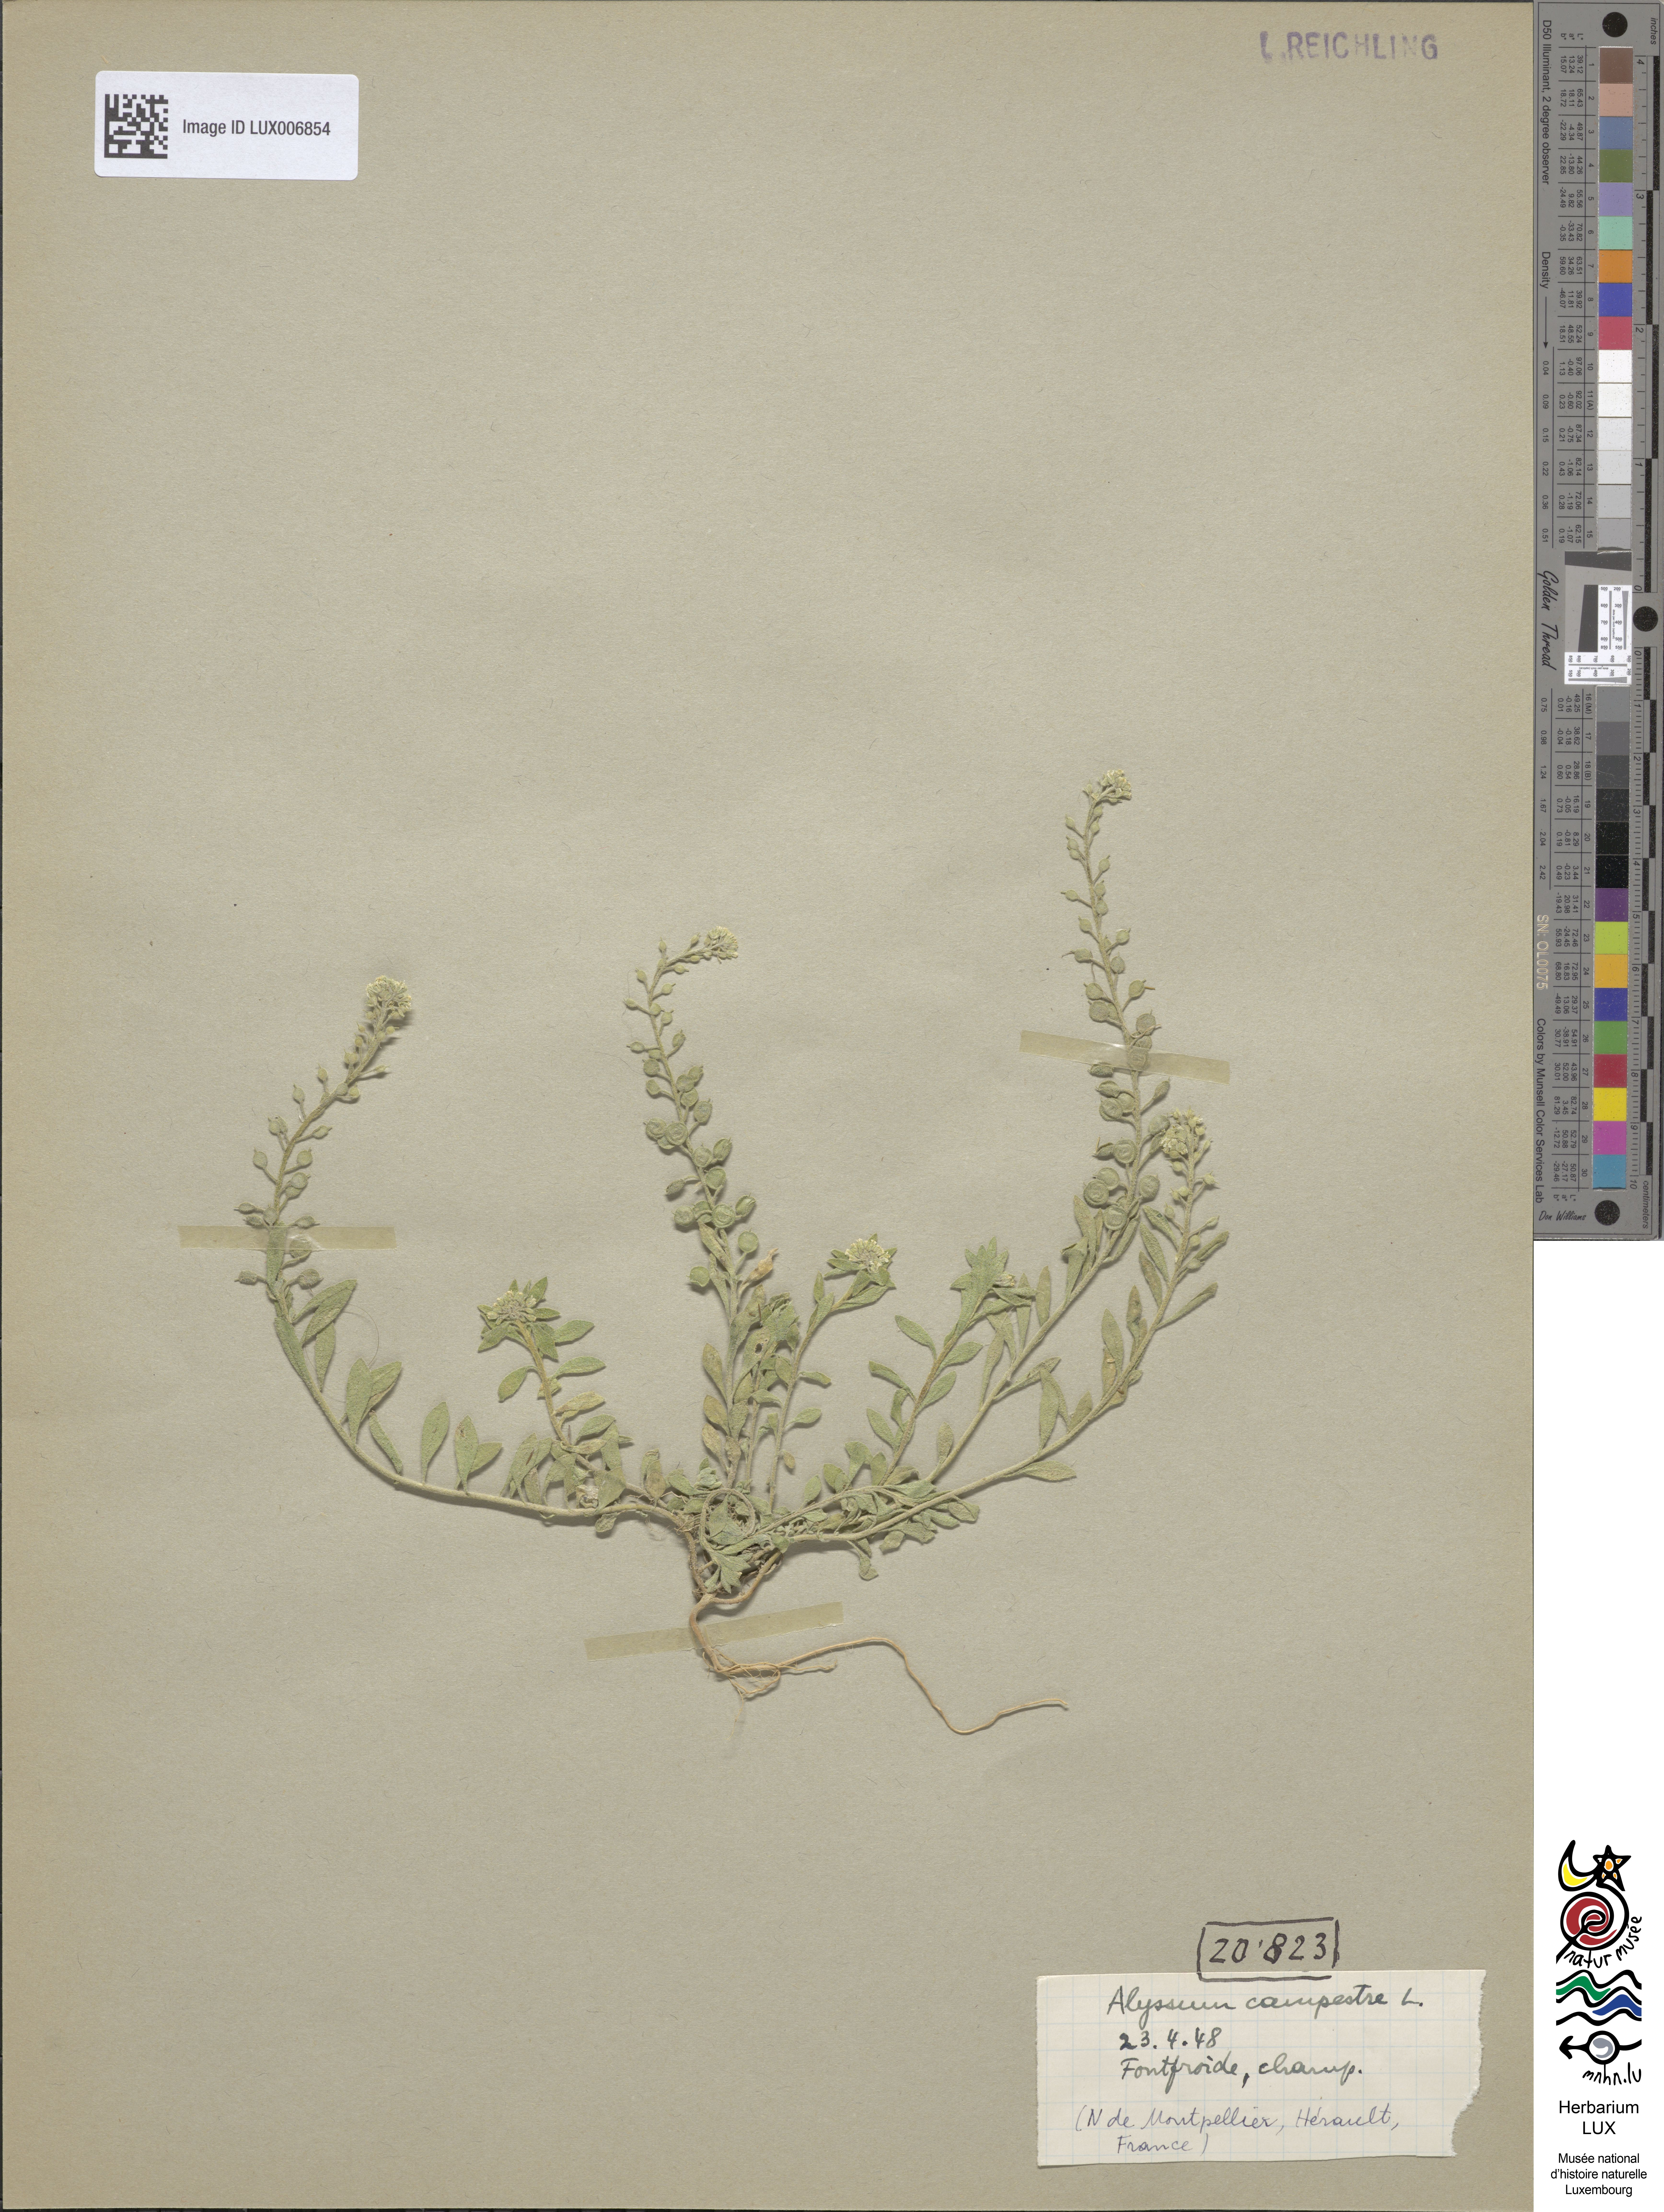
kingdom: Plantae
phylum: Tracheophyta
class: Magnoliopsida
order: Brassicales
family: Brassicaceae
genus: Alyssum
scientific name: Alyssum alyssoides
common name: Small alison
